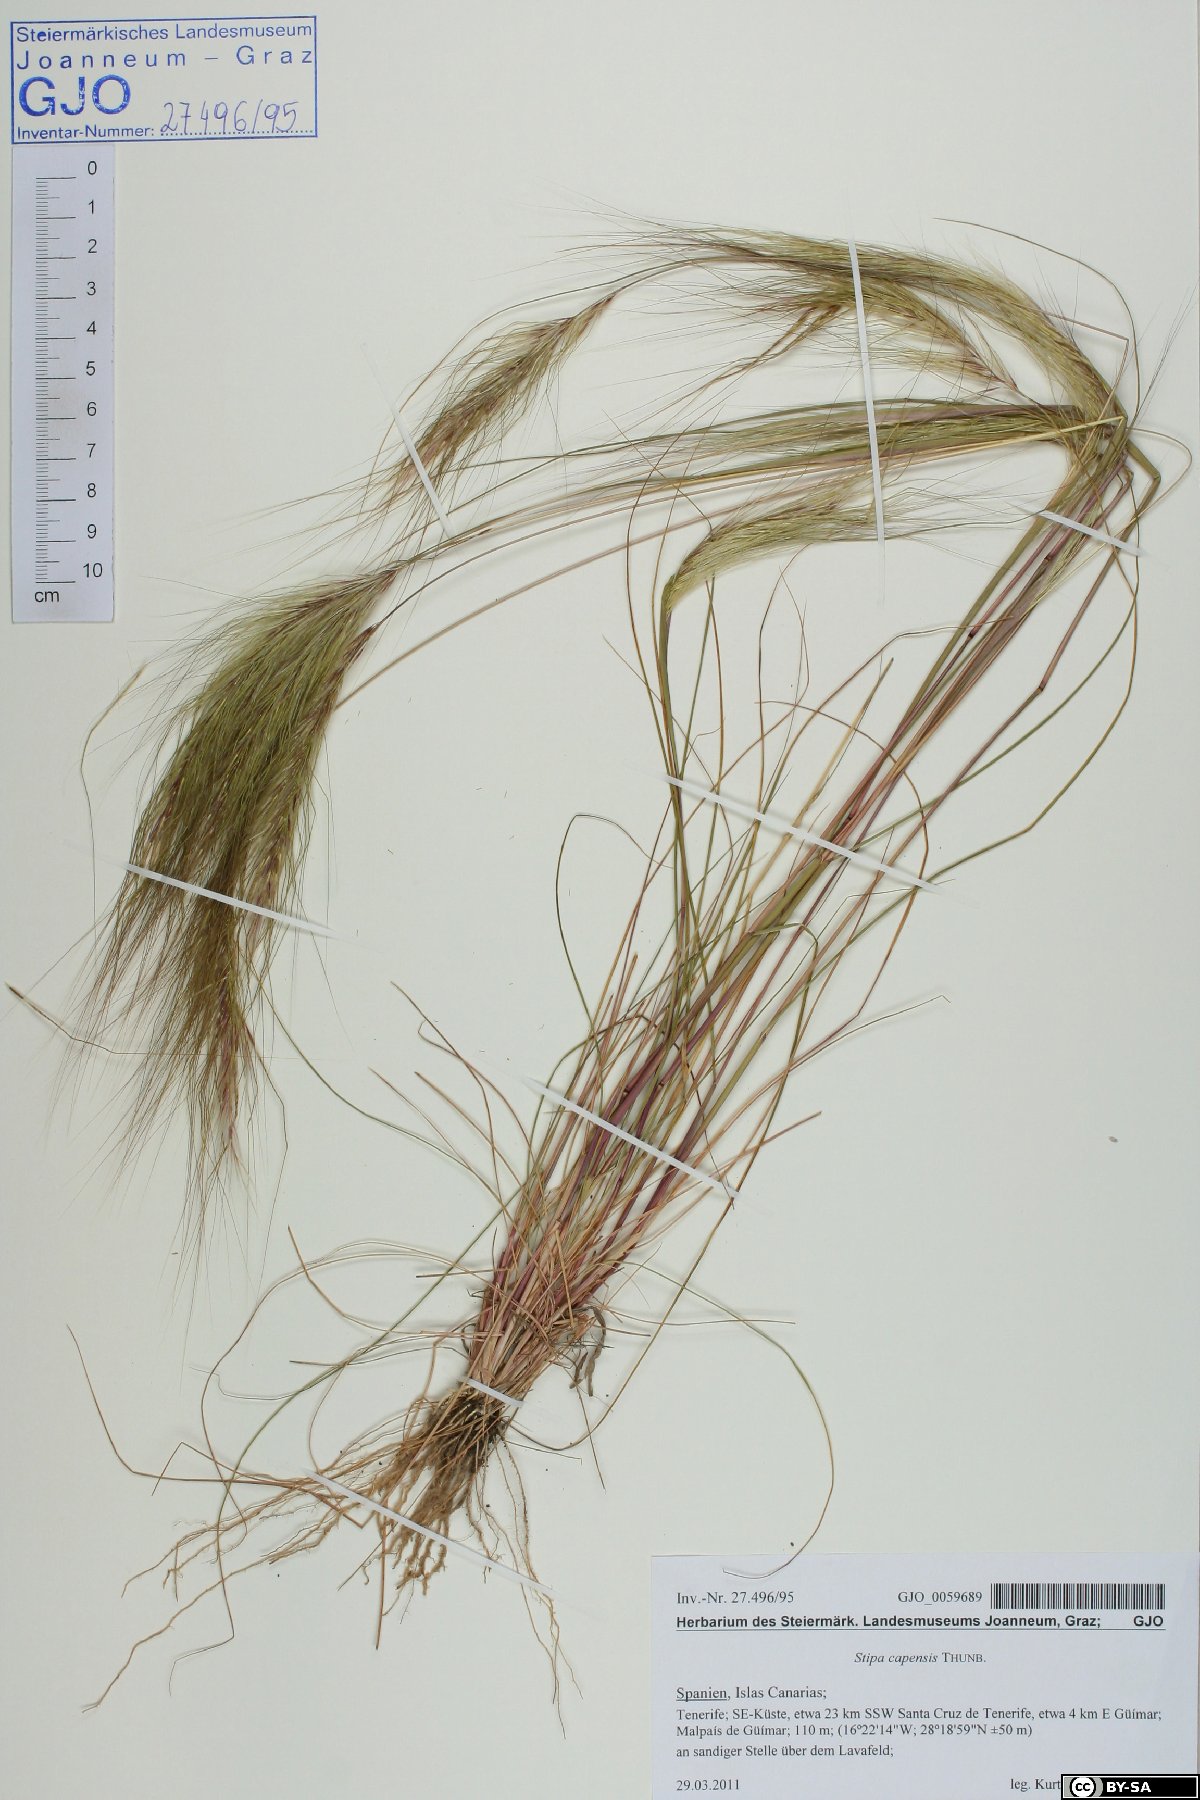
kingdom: Plantae
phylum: Tracheophyta
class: Liliopsida
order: Poales
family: Poaceae
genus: Stipellula
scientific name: Stipellula capensis
